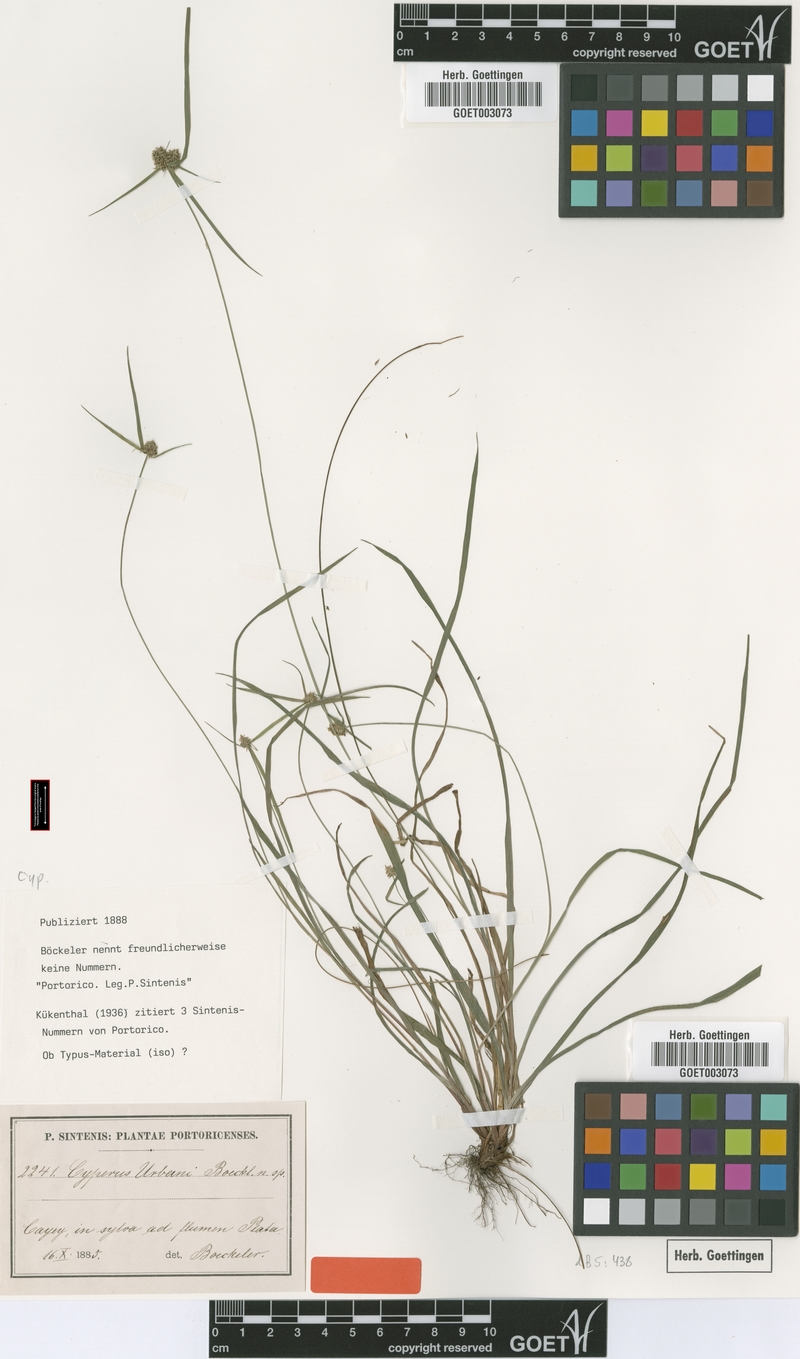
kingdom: Plantae
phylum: Tracheophyta
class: Liliopsida
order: Poales
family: Cyperaceae
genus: Cyperus
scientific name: Cyperus urbani
